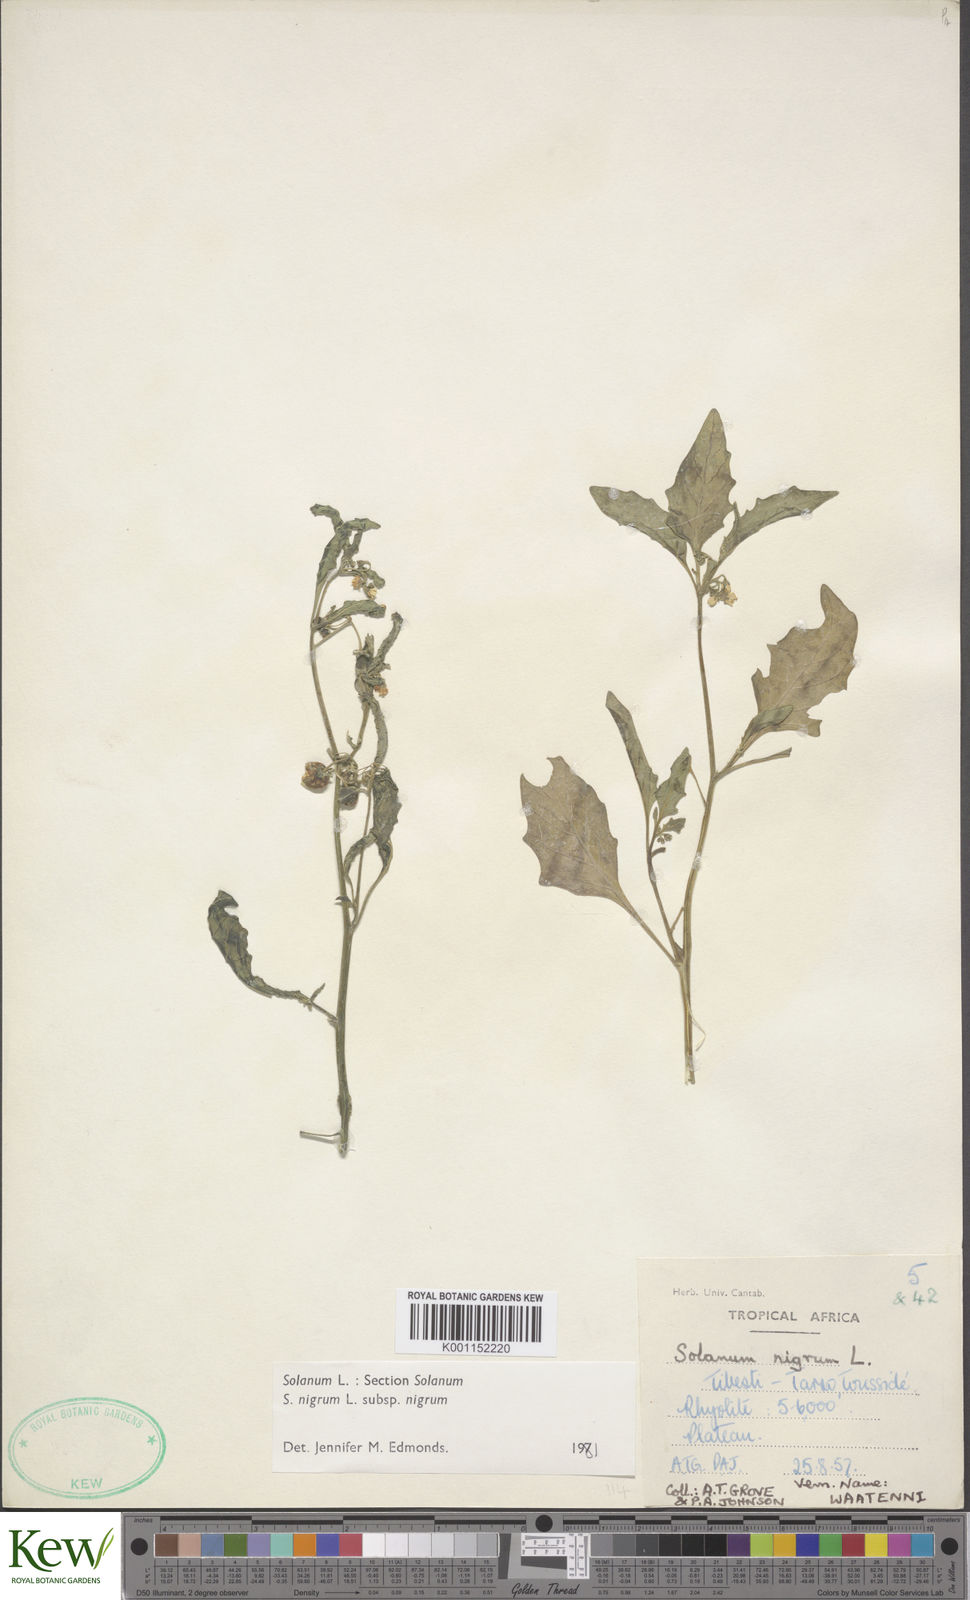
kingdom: Plantae
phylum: Tracheophyta
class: Magnoliopsida
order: Solanales
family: Solanaceae
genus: Solanum
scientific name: Solanum nigrum
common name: Black nightshade
